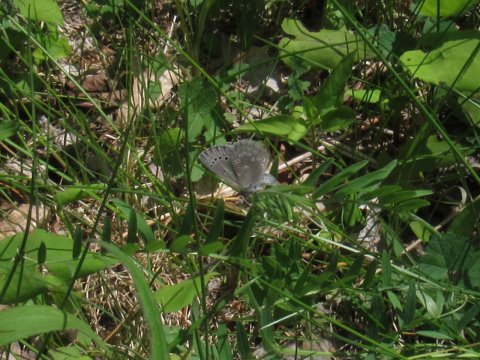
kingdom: Animalia
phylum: Arthropoda
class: Insecta
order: Lepidoptera
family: Lycaenidae
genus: Glaucopsyche
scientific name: Glaucopsyche lygdamus
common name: Silvery Blue
